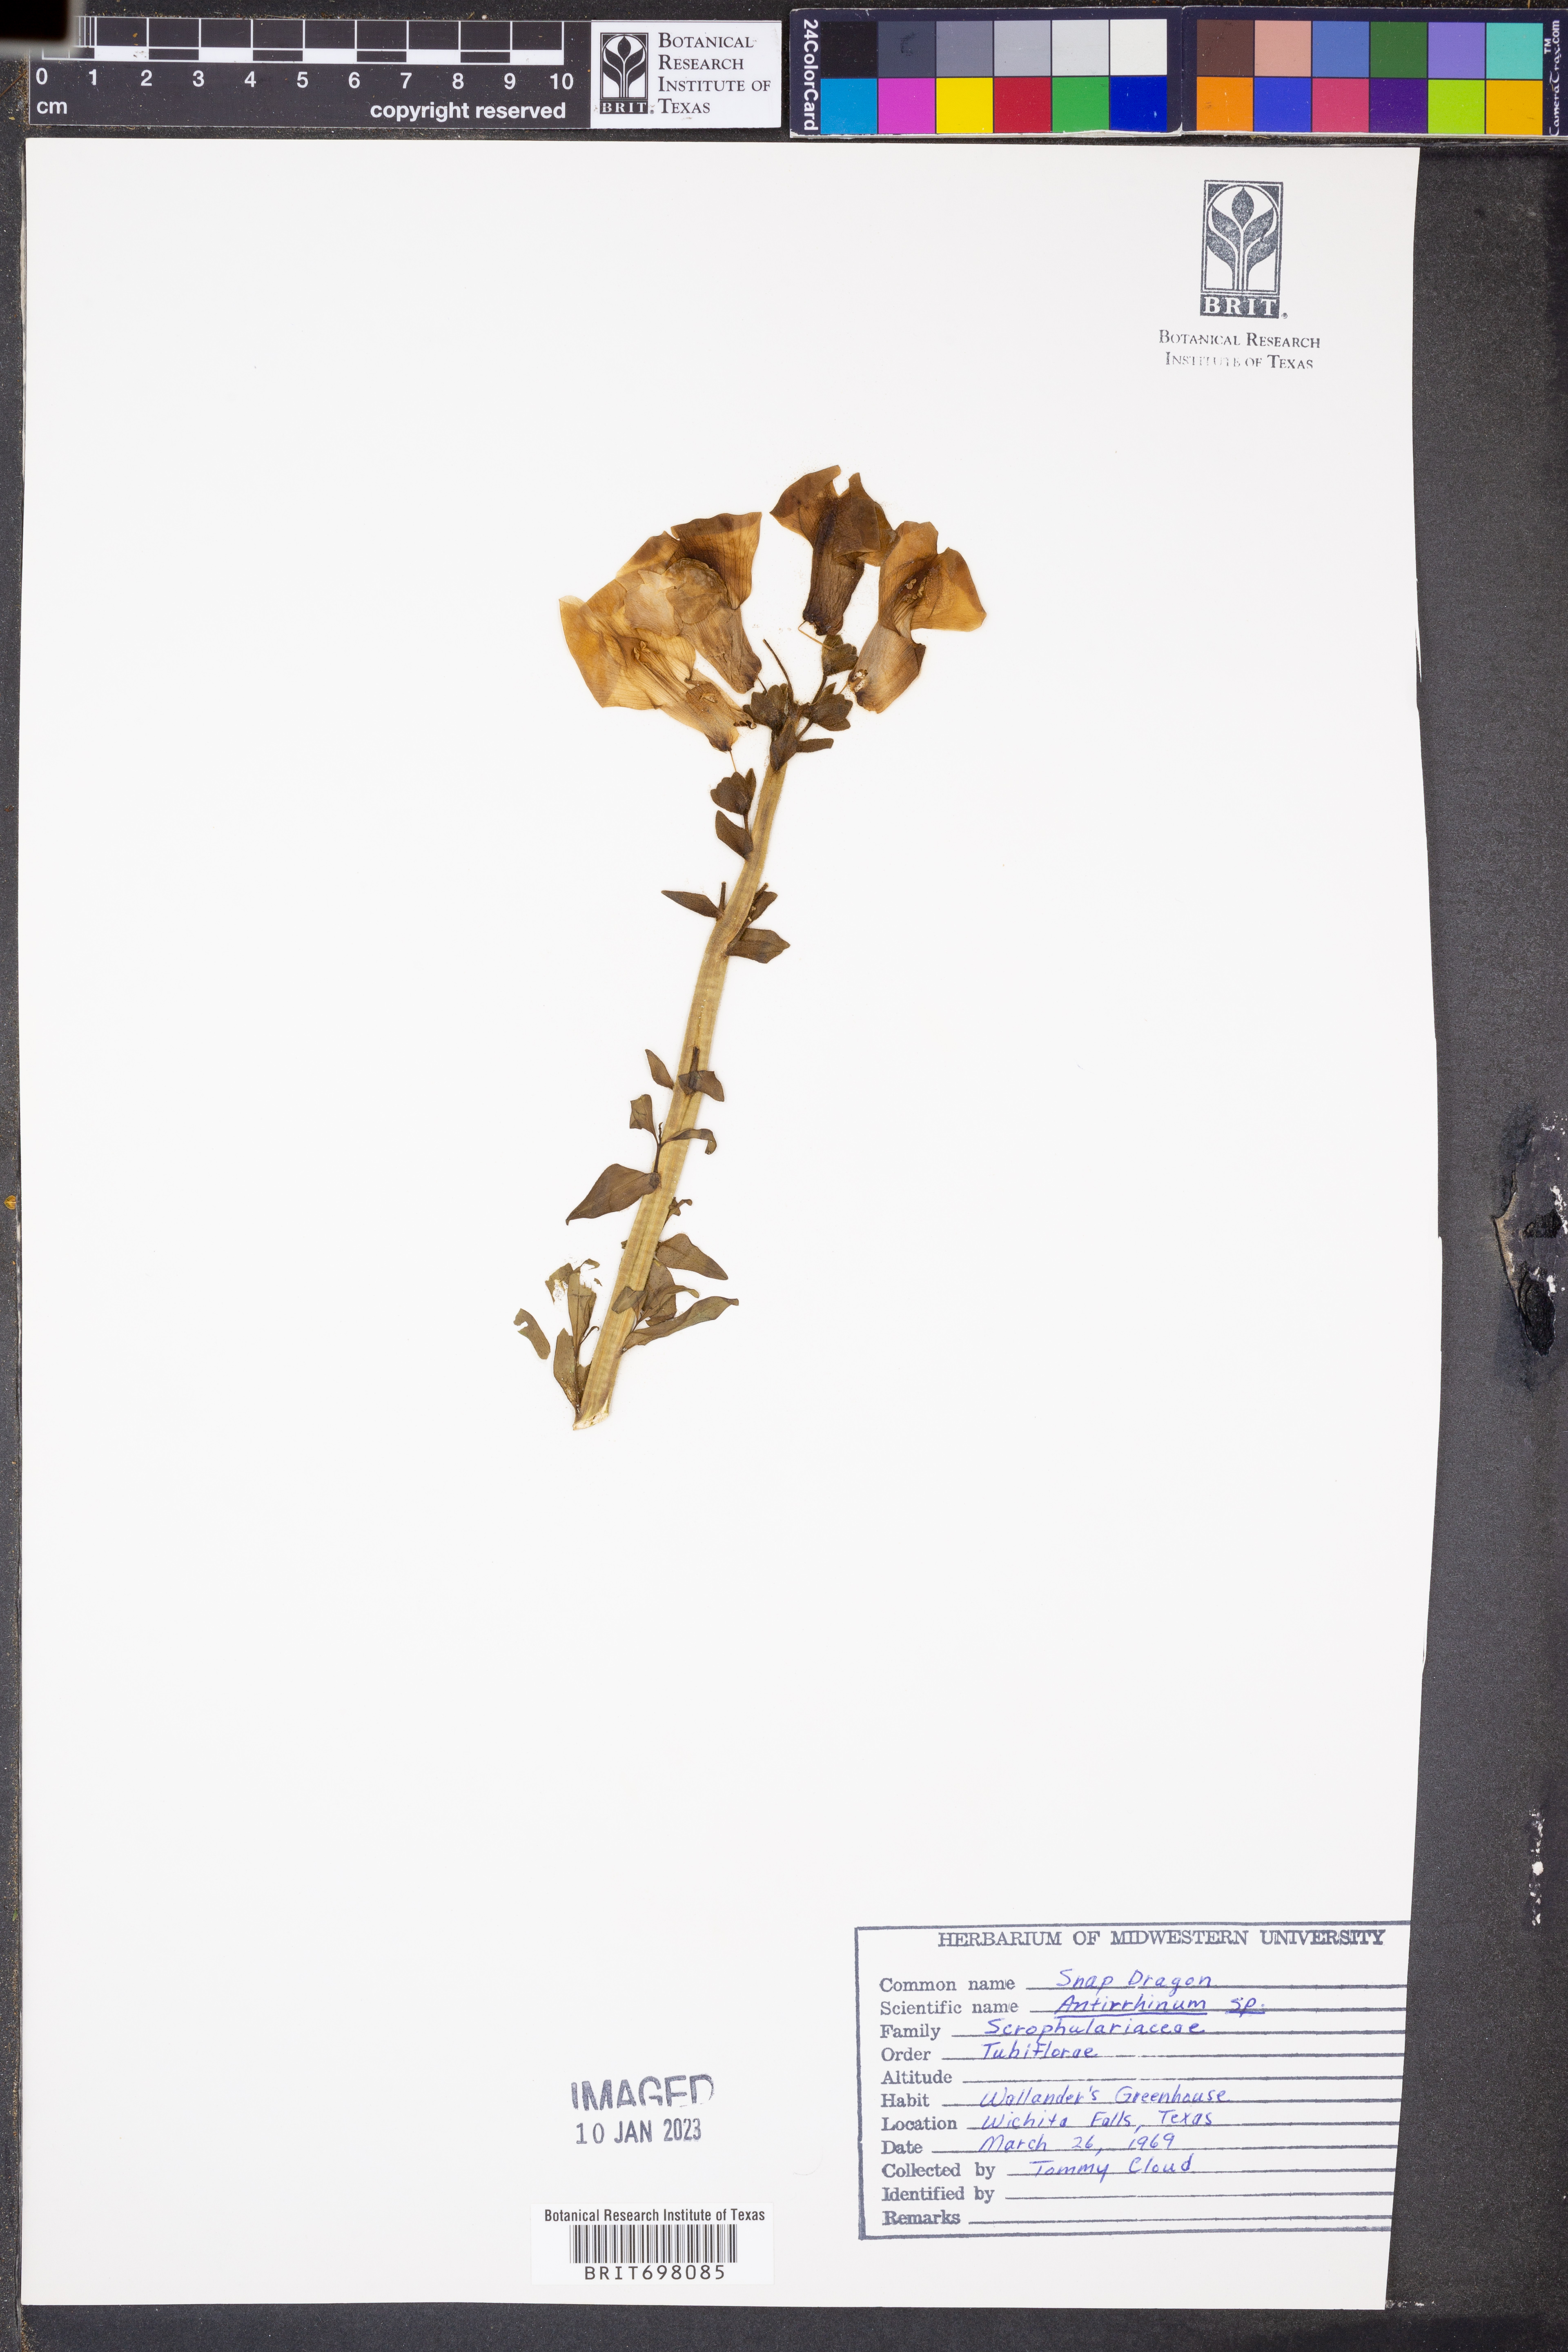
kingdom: Plantae
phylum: Tracheophyta
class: Magnoliopsida
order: Lamiales
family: Plantaginaceae
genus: Antirrhinum
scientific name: Antirrhinum
